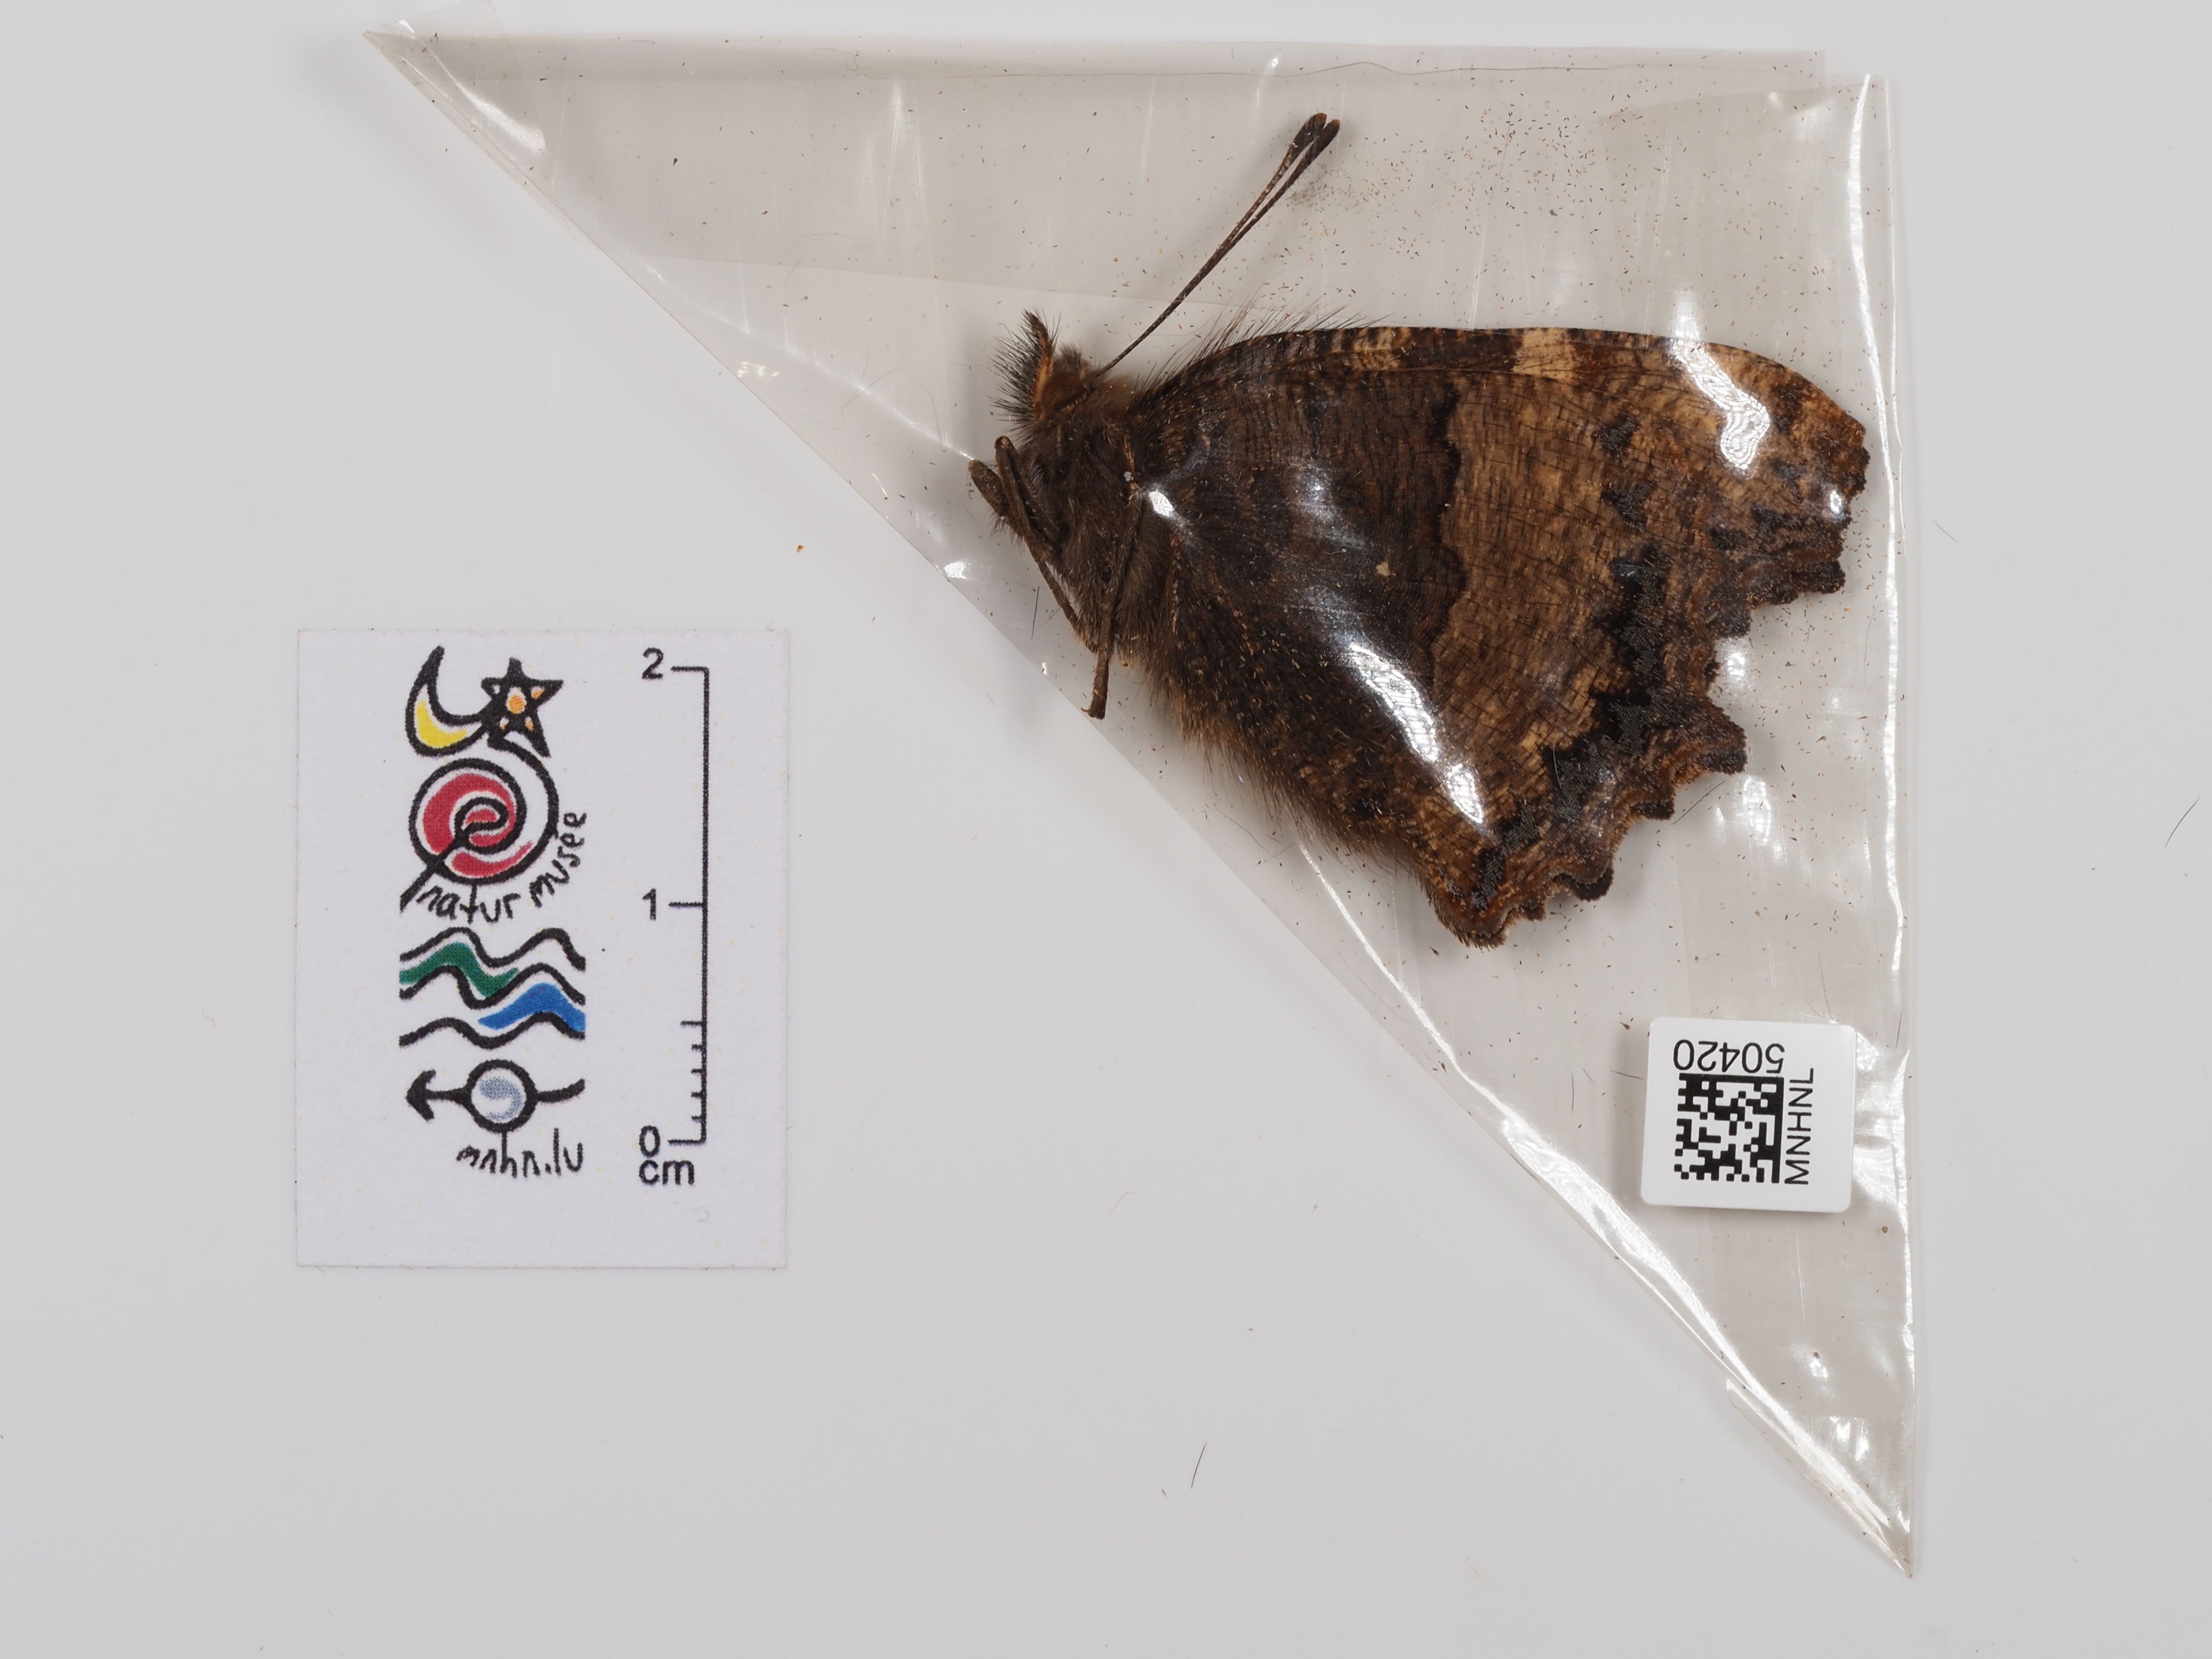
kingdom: Animalia
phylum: Arthropoda
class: Insecta
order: Lepidoptera
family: Nymphalidae
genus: Nymphalis
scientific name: Nymphalis polychloros
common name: Large tortoiseshell
